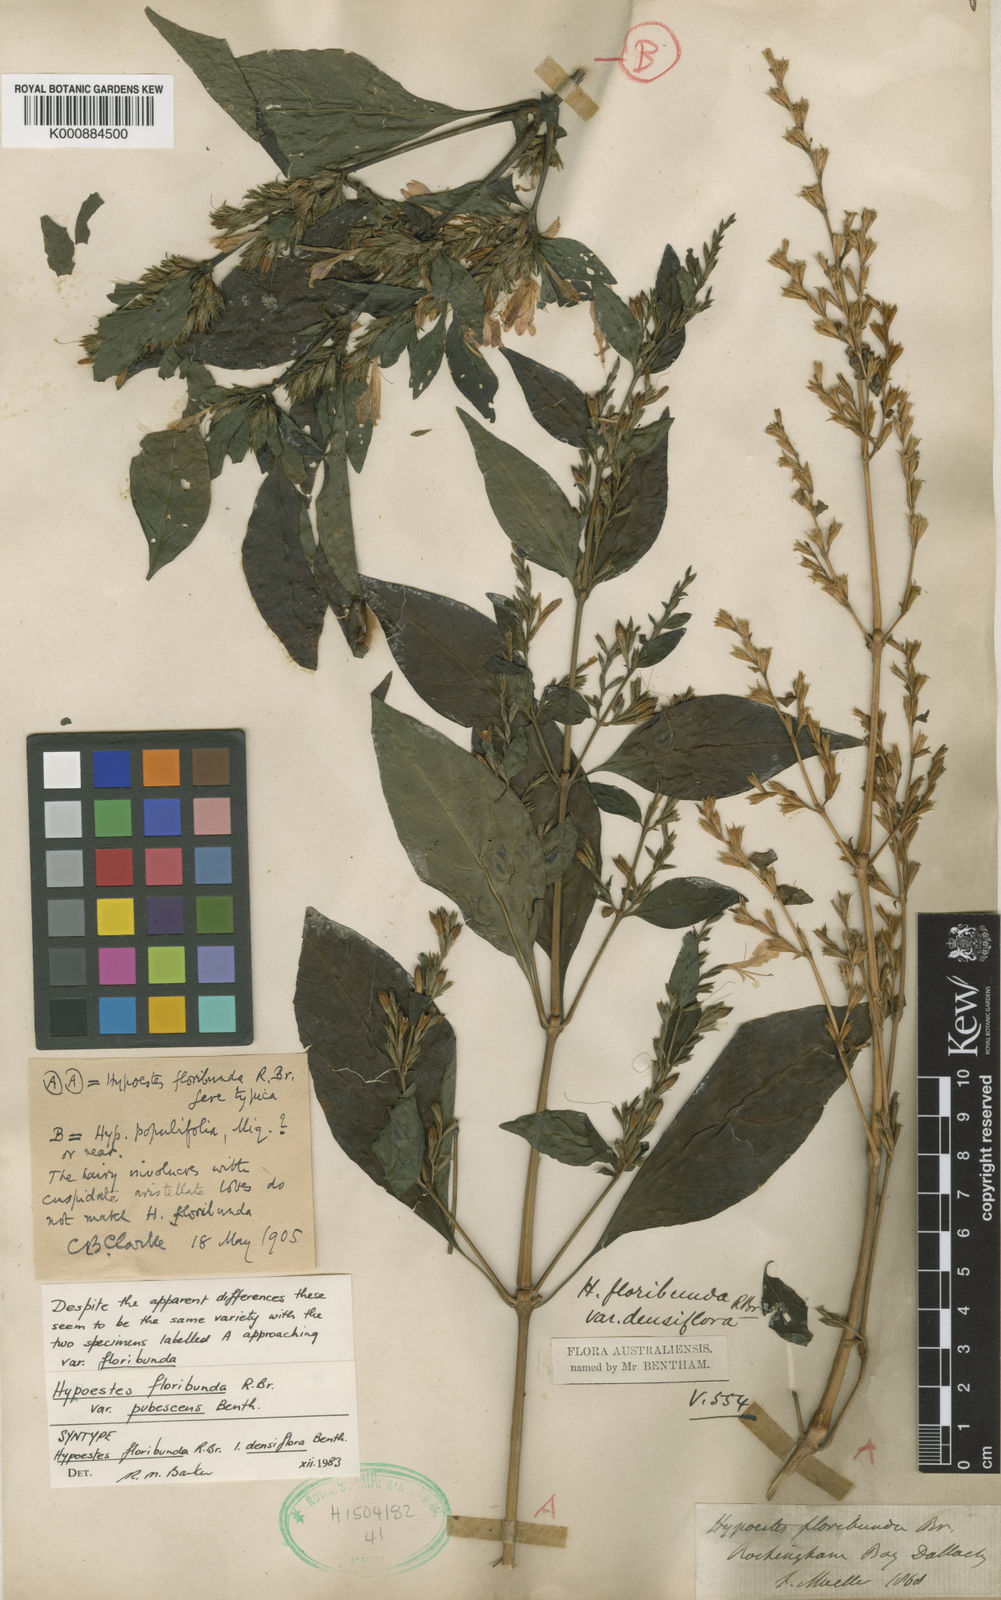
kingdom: Plantae
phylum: Tracheophyta
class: Magnoliopsida
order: Lamiales
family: Acanthaceae
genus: Hypoestes
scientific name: Hypoestes floribunda
